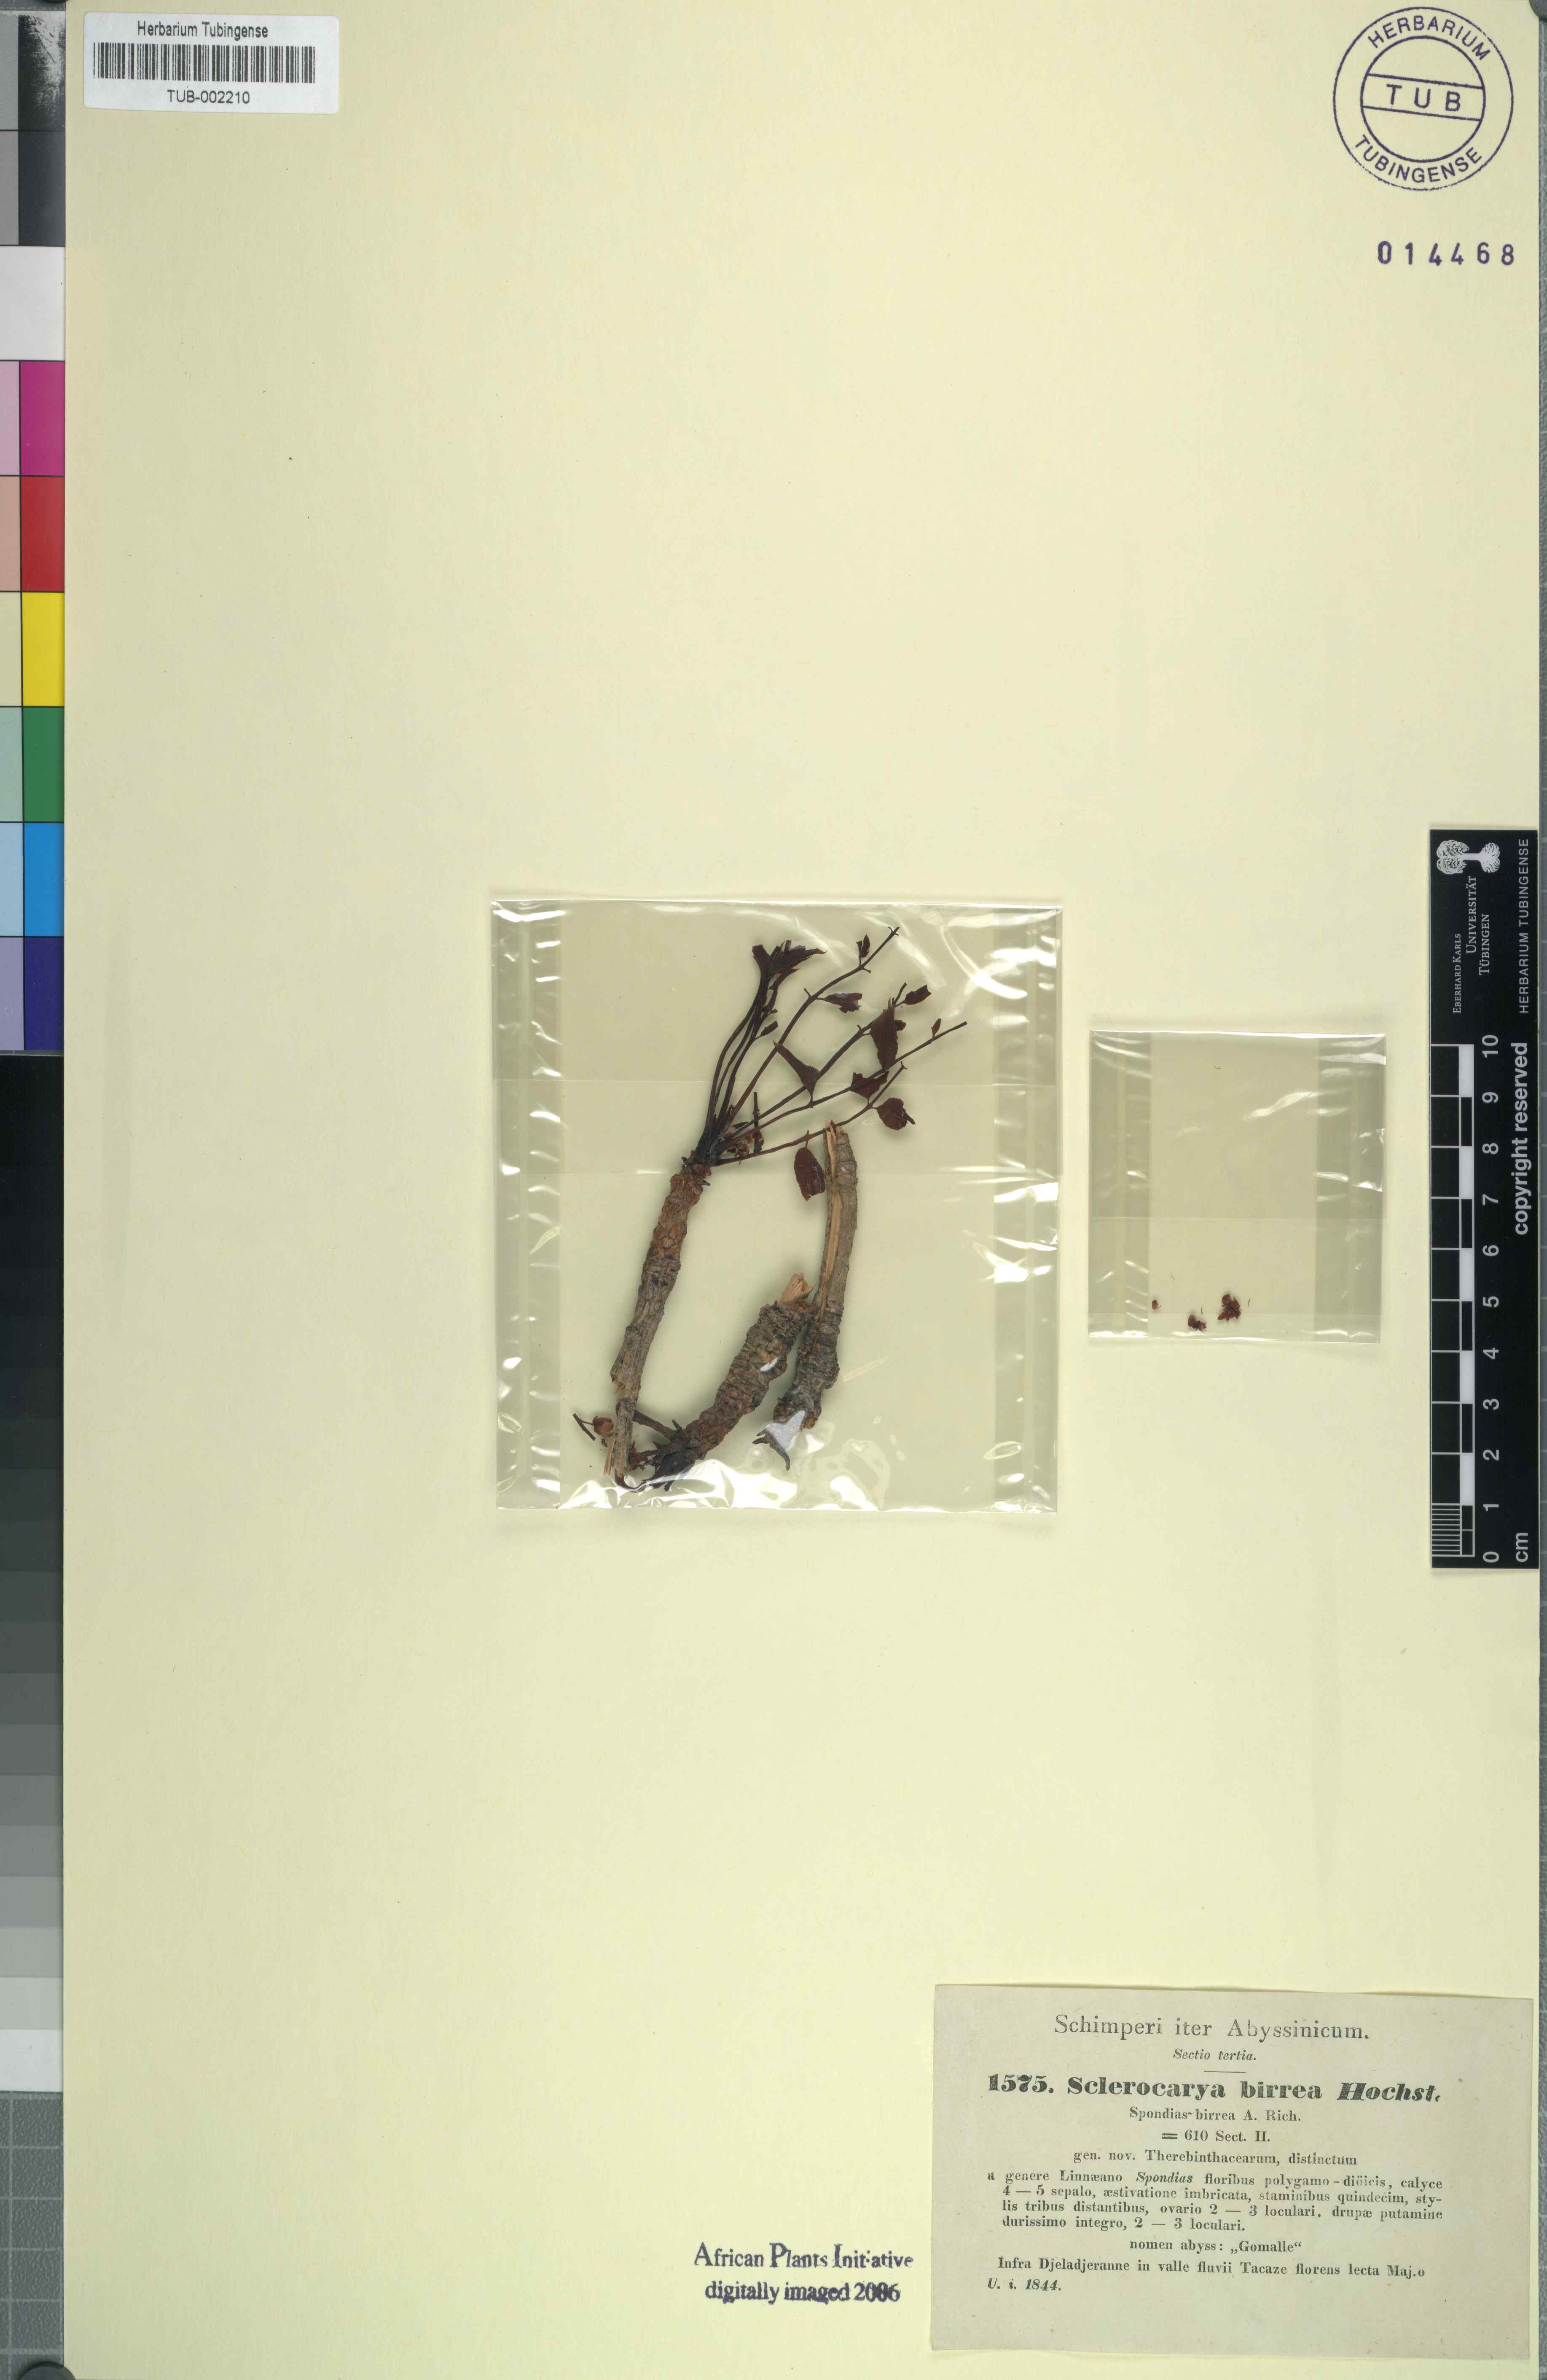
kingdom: Plantae
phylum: Tracheophyta
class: Magnoliopsida
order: Sapindales
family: Anacardiaceae
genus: Sclerocarya
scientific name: Sclerocarya birrea
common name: Marula
